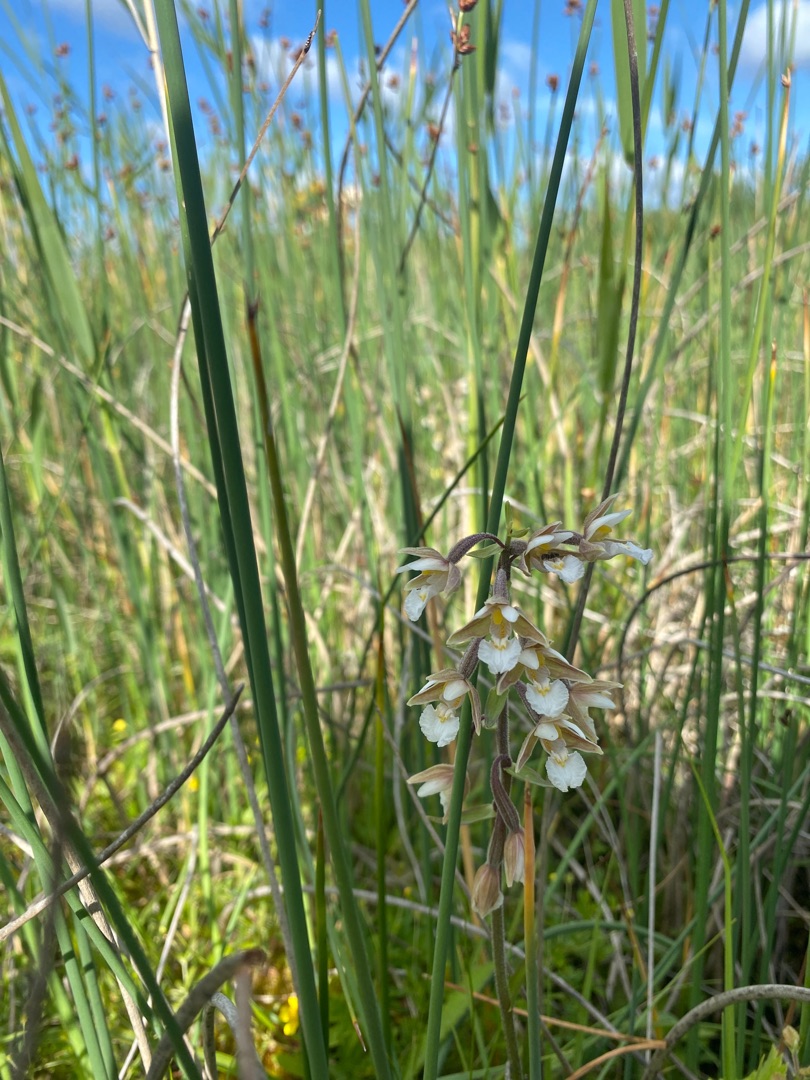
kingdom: Plantae
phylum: Tracheophyta
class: Liliopsida
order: Asparagales
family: Orchidaceae
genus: Epipactis
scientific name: Epipactis palustris
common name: Sump-hullæbe
